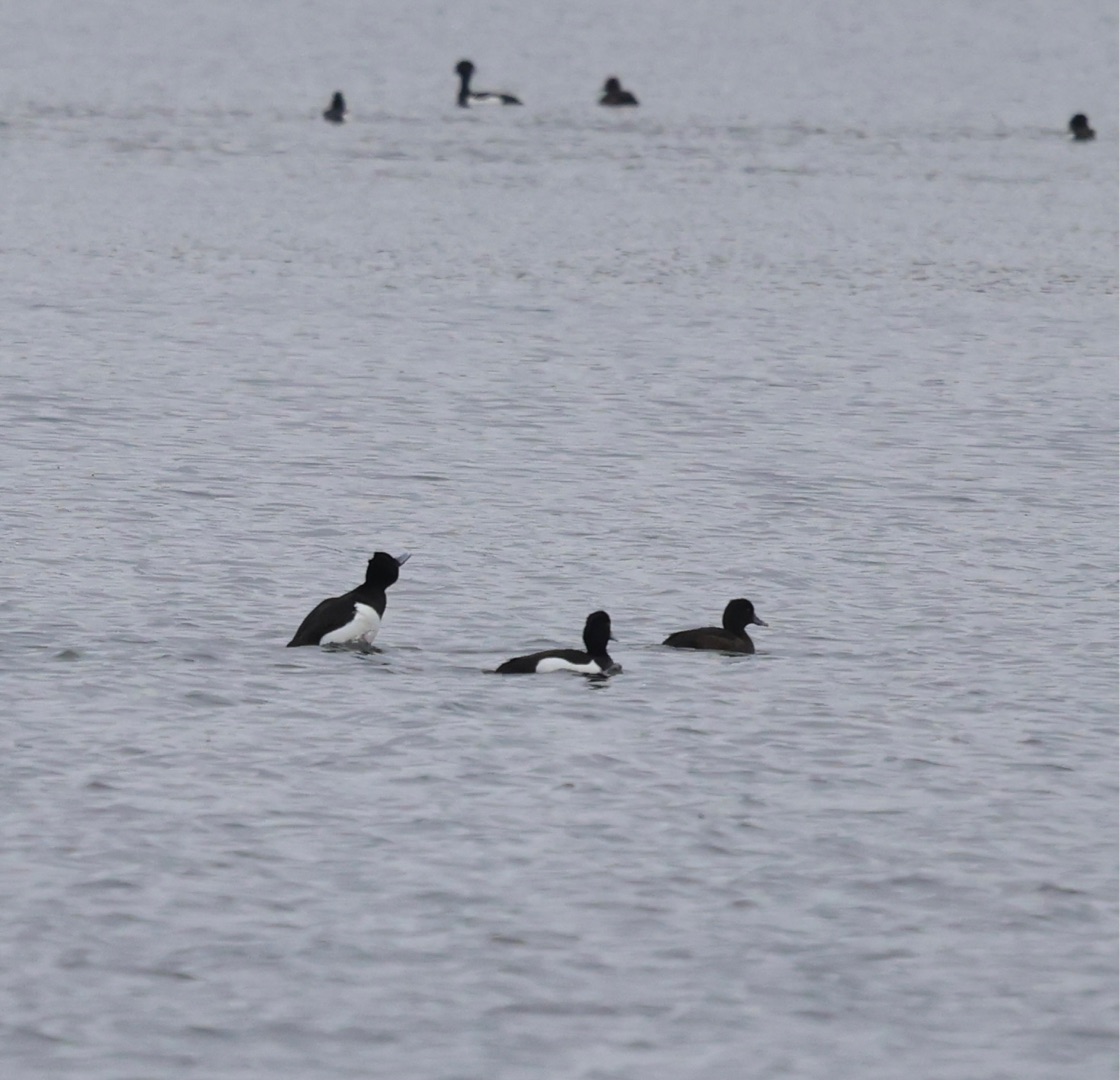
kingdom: Animalia
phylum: Chordata
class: Aves
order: Anseriformes
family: Anatidae
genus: Aythya
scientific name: Aythya fuligula
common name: Troldand
